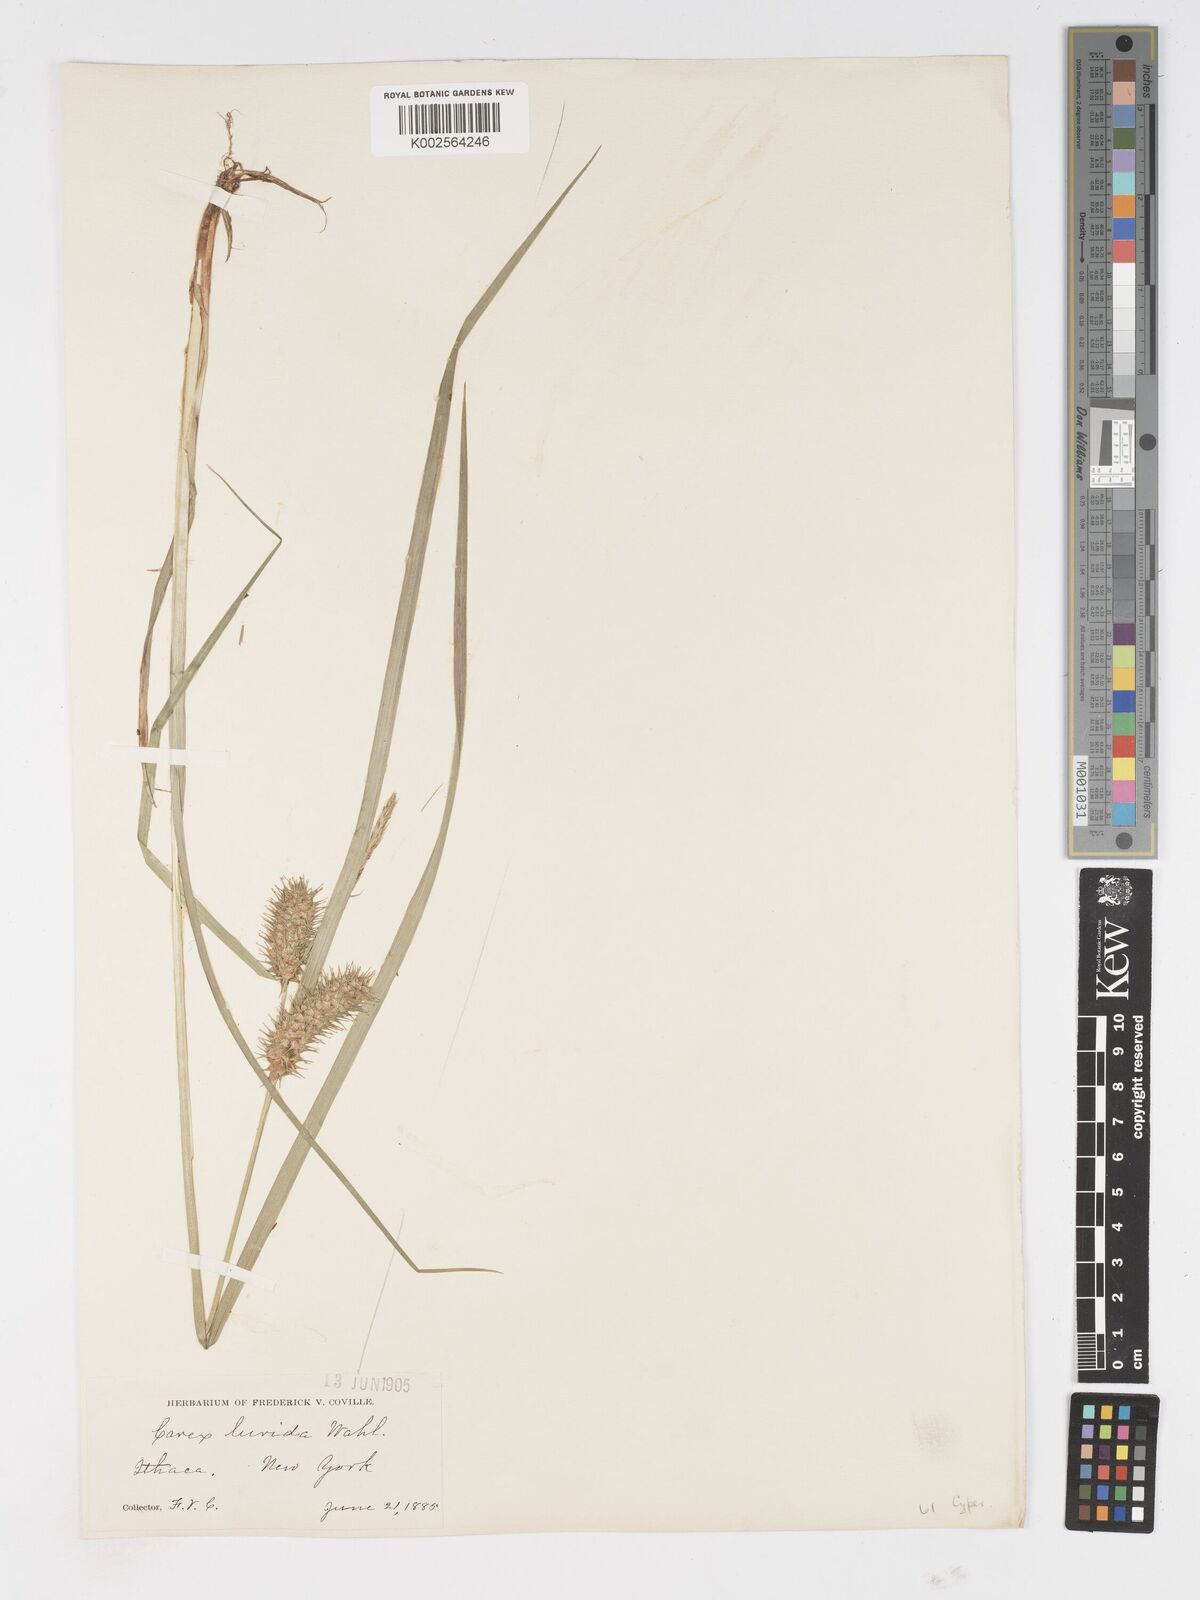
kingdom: Plantae
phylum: Tracheophyta
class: Liliopsida
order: Poales
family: Cyperaceae
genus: Carex
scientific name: Carex lurida
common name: Sallow sedge
